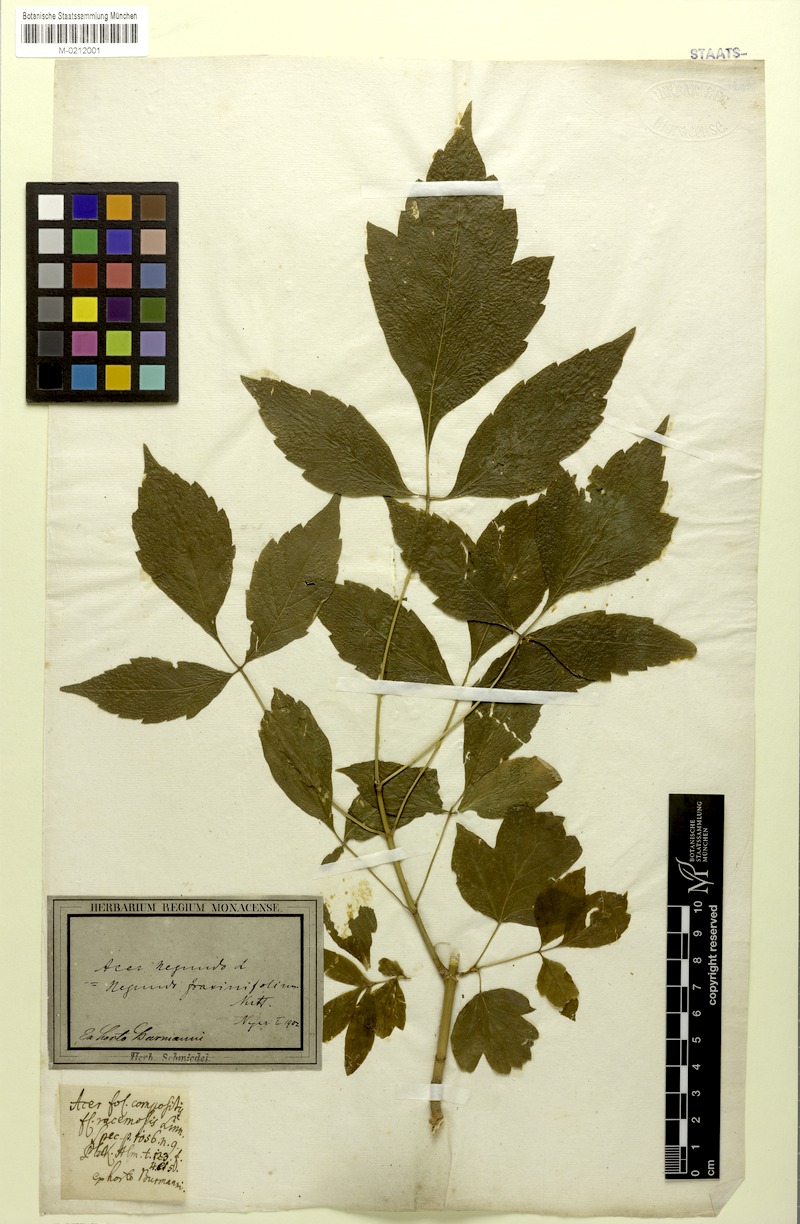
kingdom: Plantae
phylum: Tracheophyta
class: Magnoliopsida
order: Sapindales
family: Sapindaceae
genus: Acer
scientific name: Acer negundo
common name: Ashleaf maple
